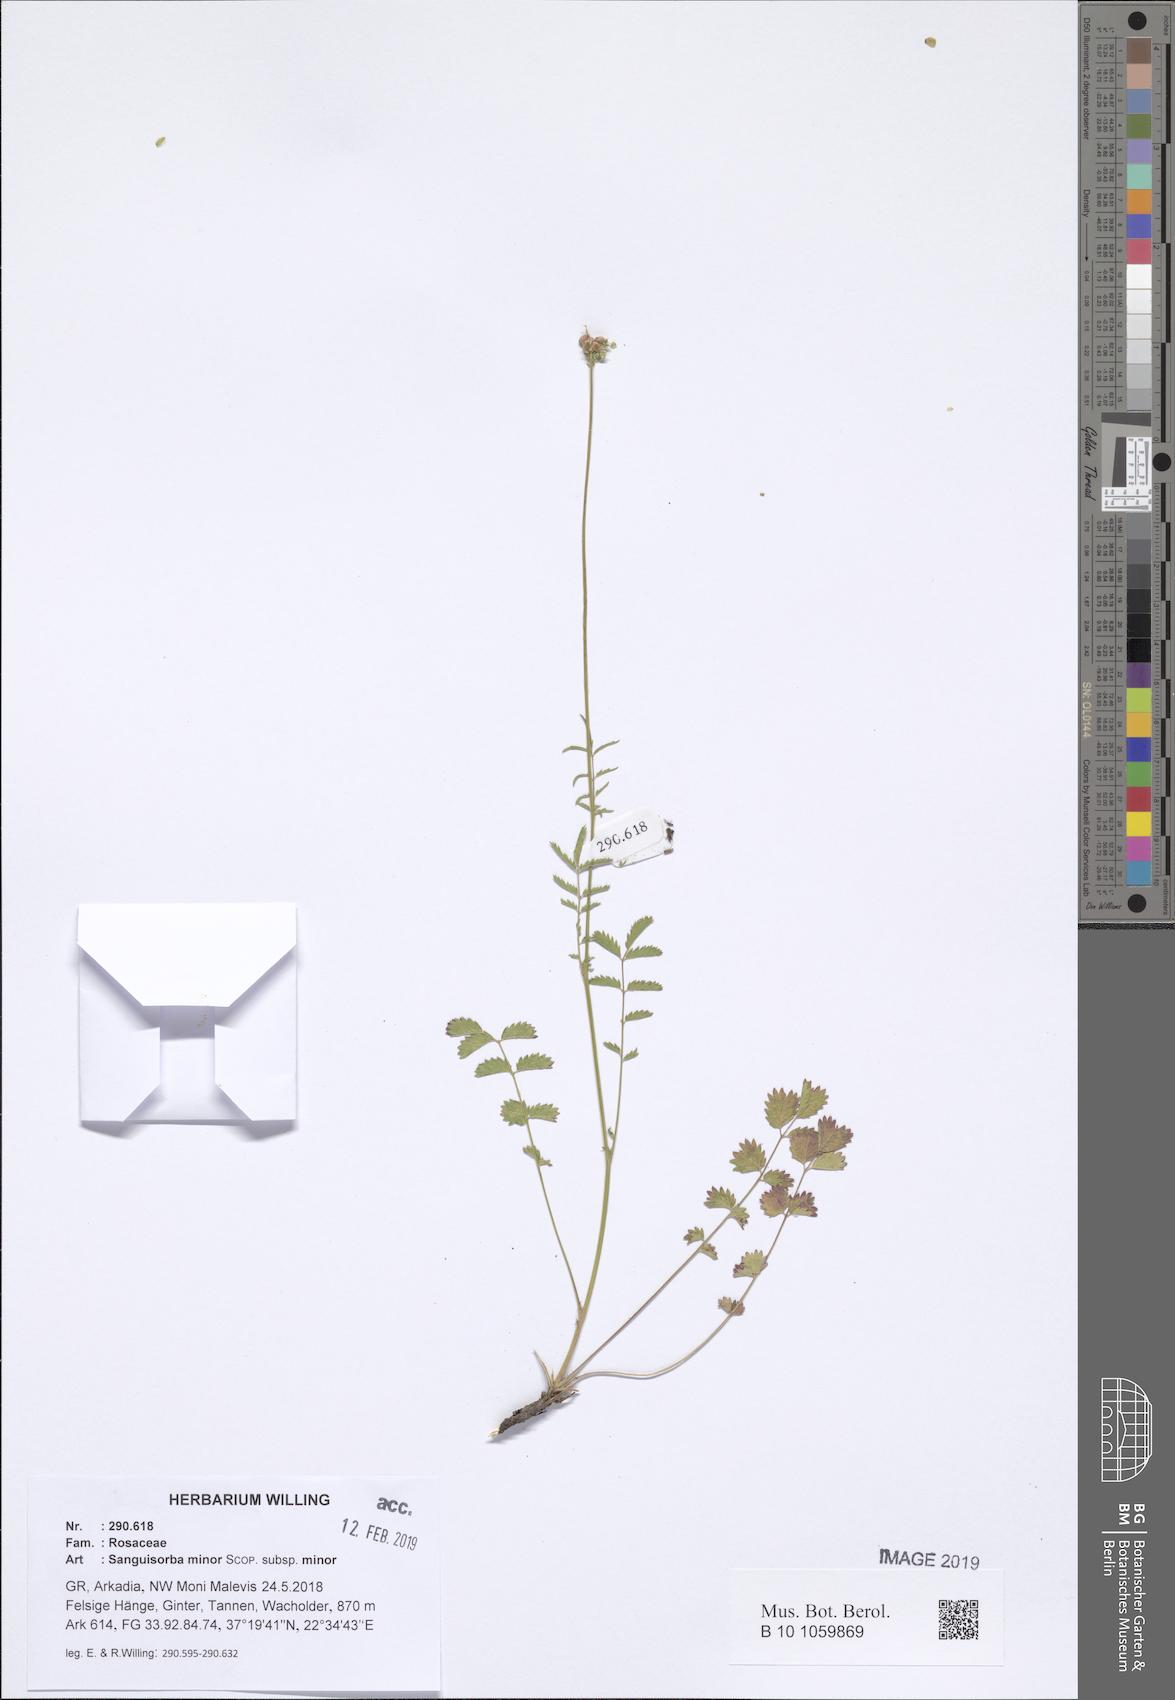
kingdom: Plantae
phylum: Tracheophyta
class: Magnoliopsida
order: Rosales
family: Rosaceae
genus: Poterium
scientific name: Poterium sanguisorba
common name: Salad burnet
